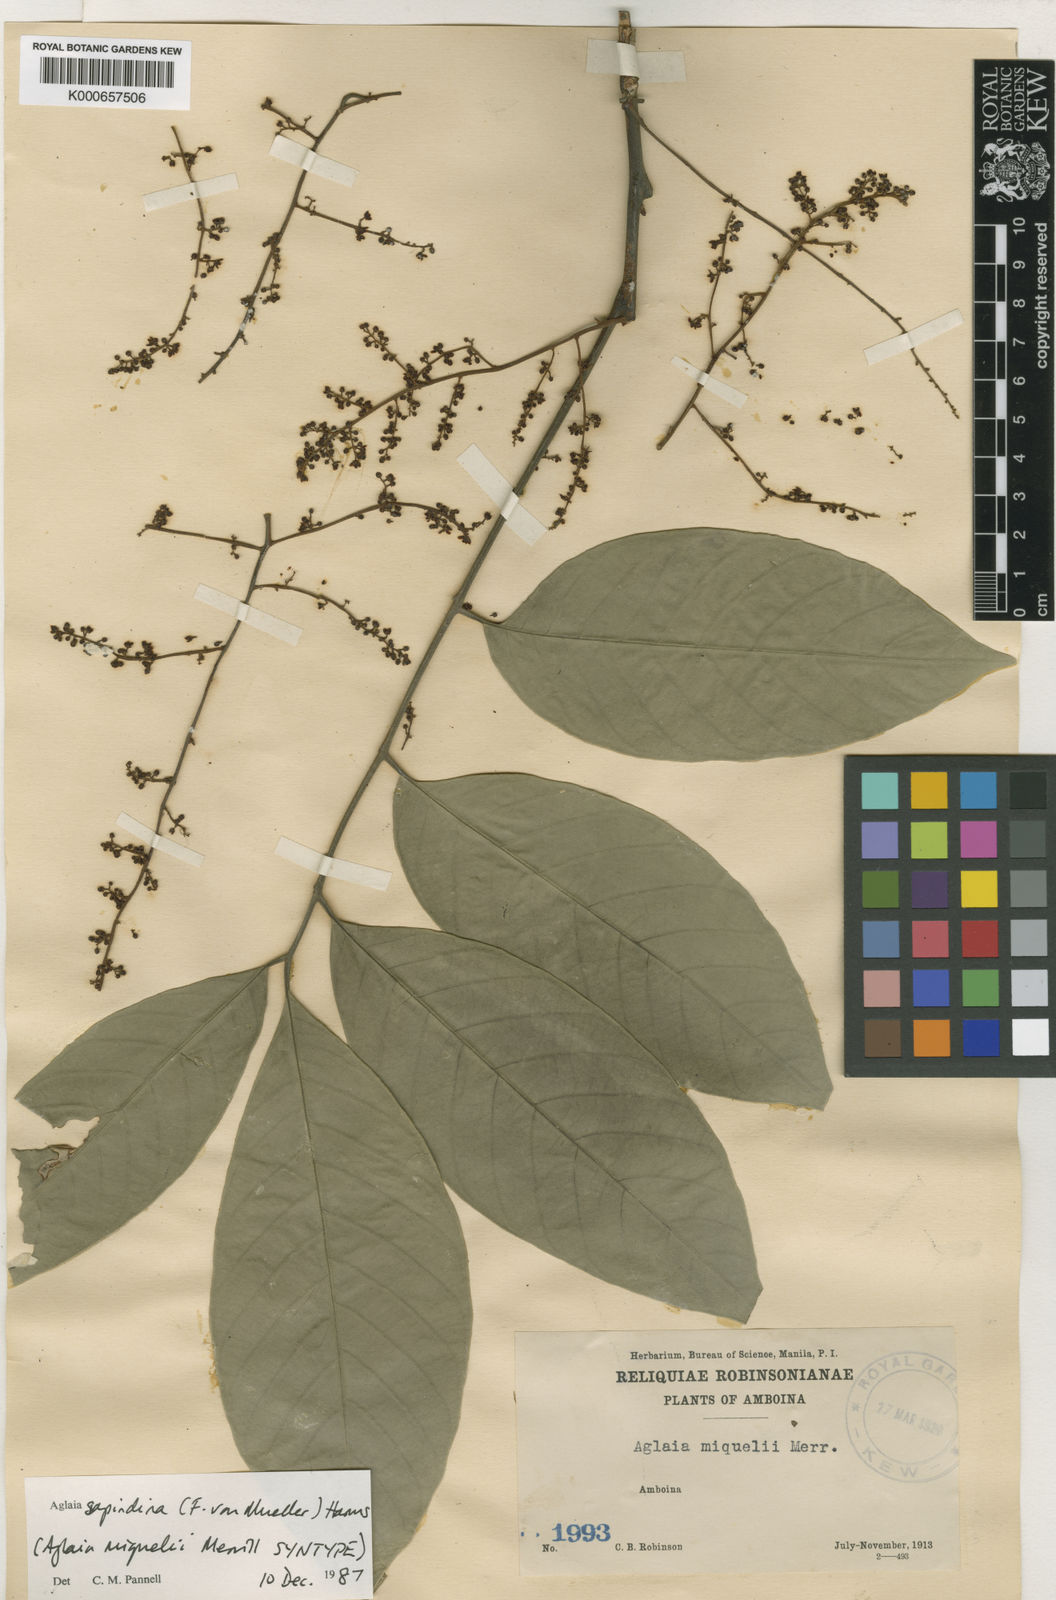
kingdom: Plantae
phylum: Tracheophyta
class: Magnoliopsida
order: Sapindales
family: Meliaceae
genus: Aglaia
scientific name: Aglaia sapindina
